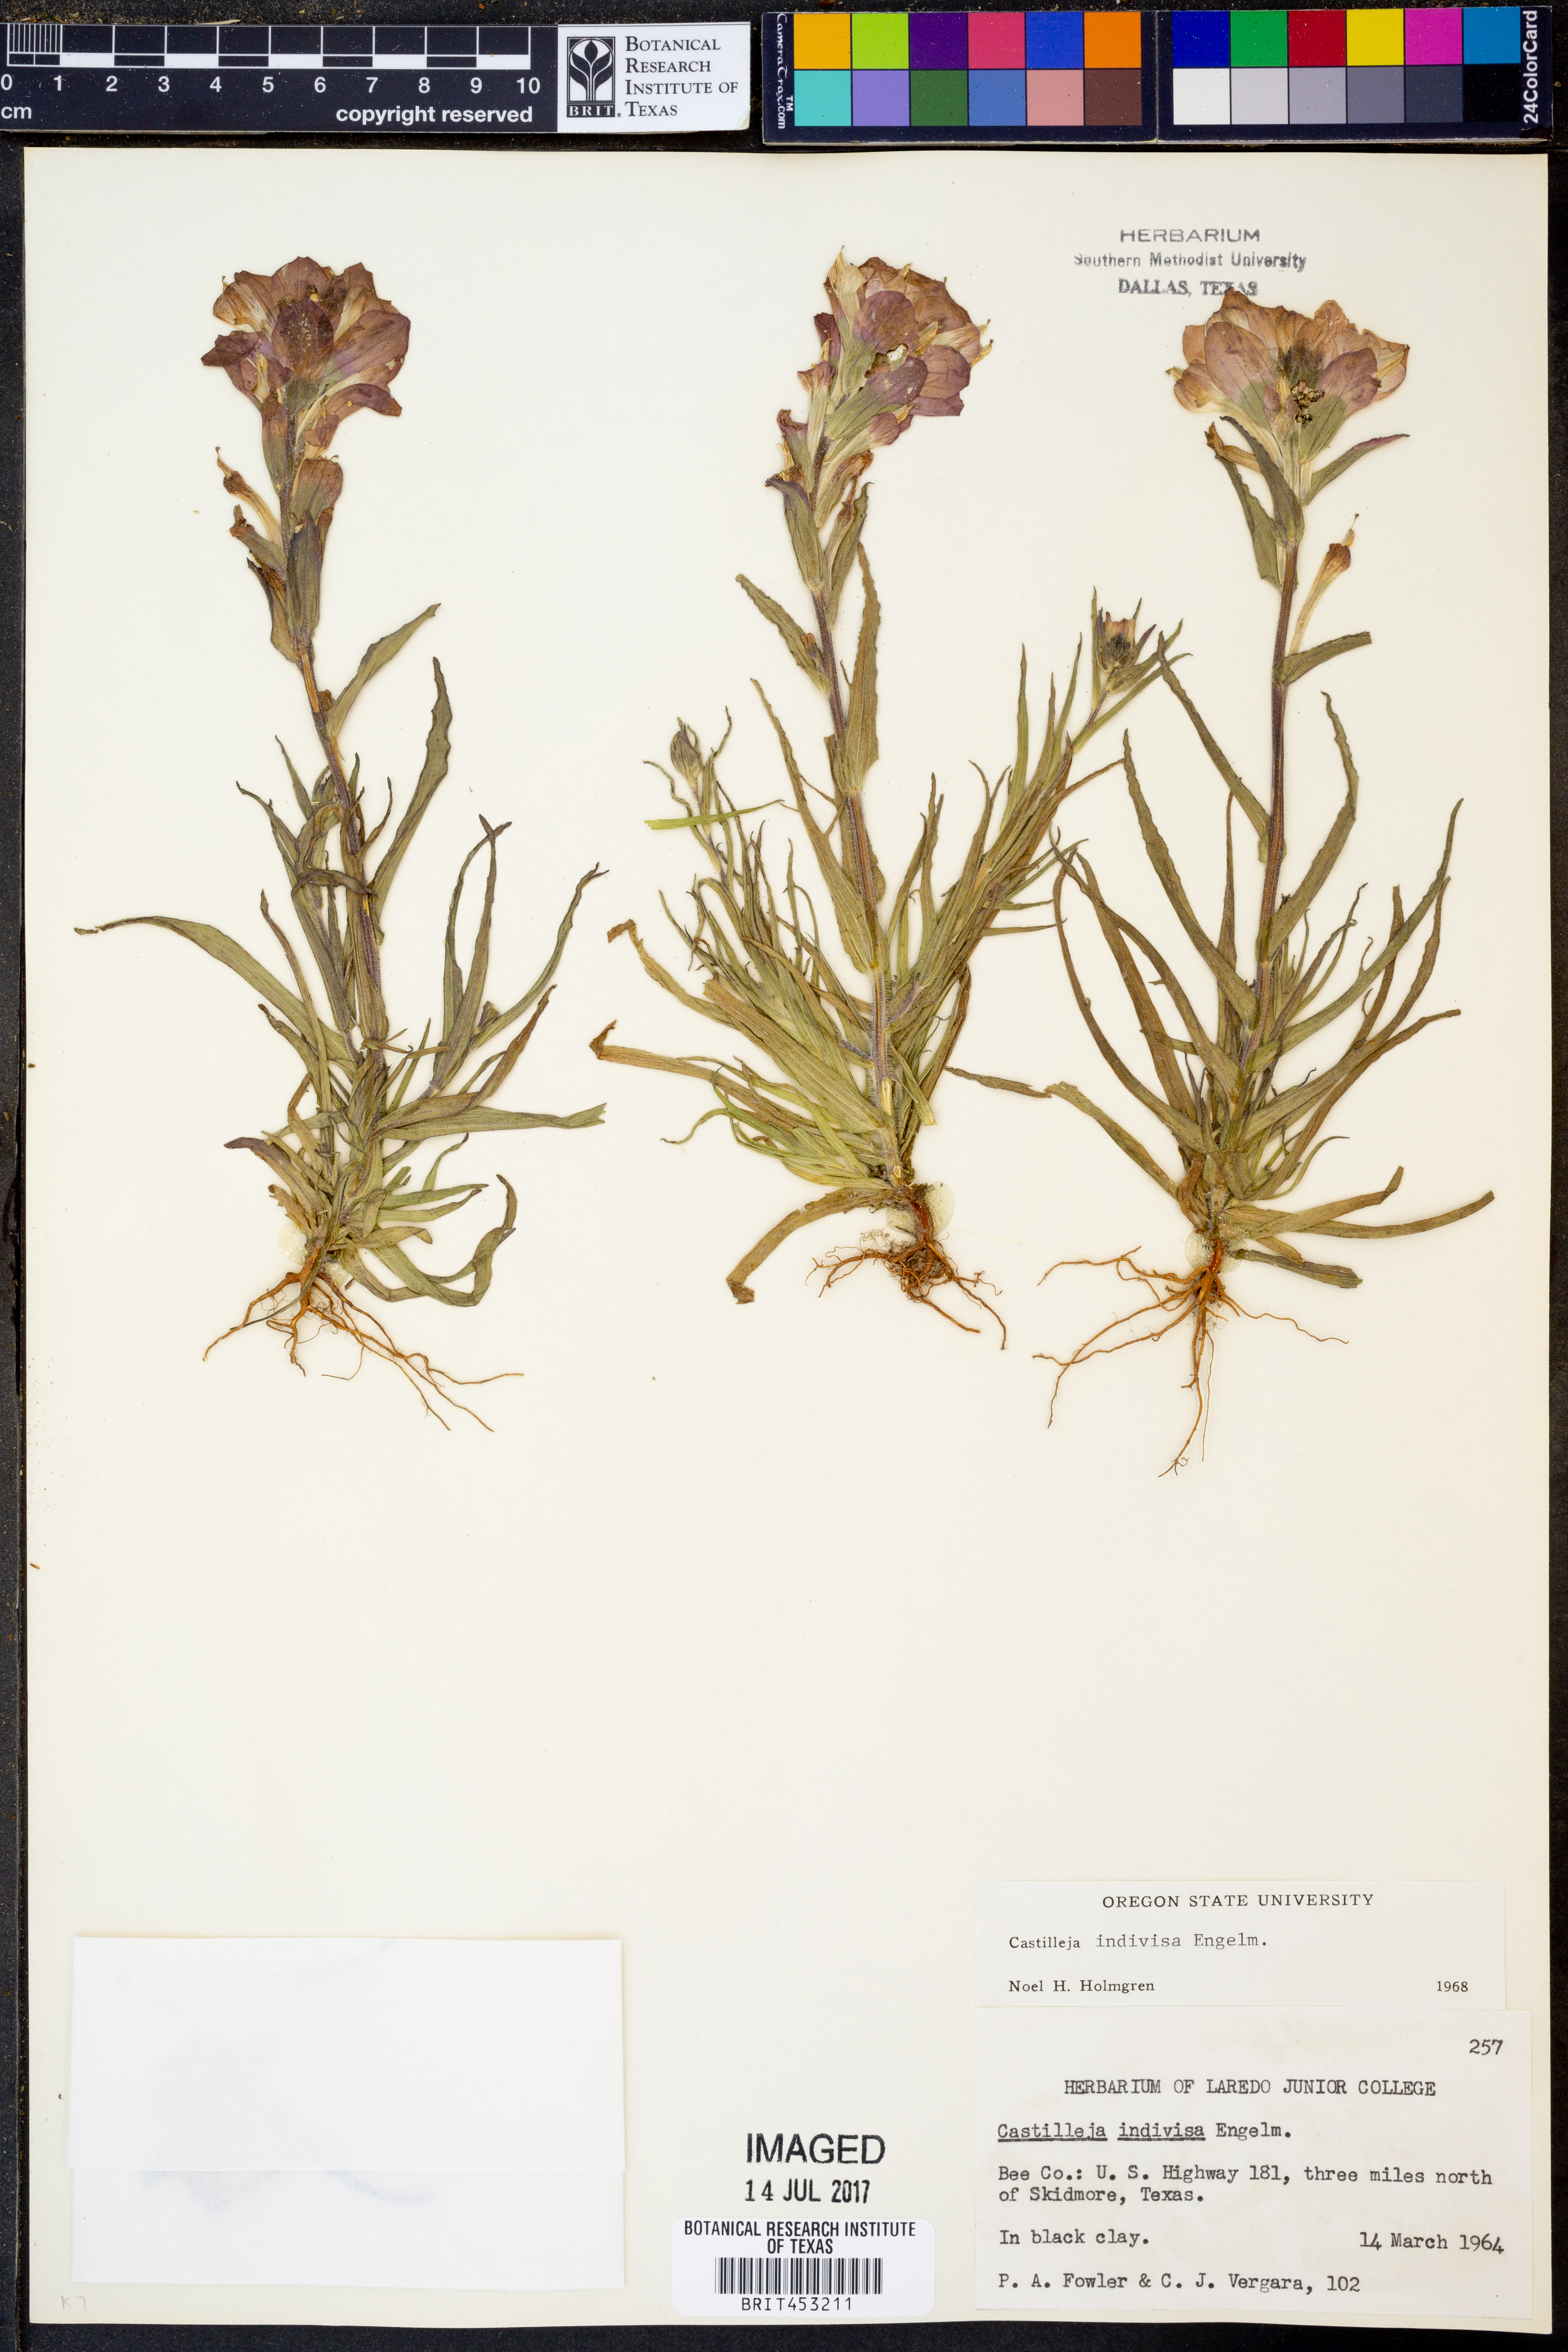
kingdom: Plantae
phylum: Tracheophyta
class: Magnoliopsida
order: Lamiales
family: Orobanchaceae
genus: Castilleja
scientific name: Castilleja indivisa
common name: Texas paintbrush
